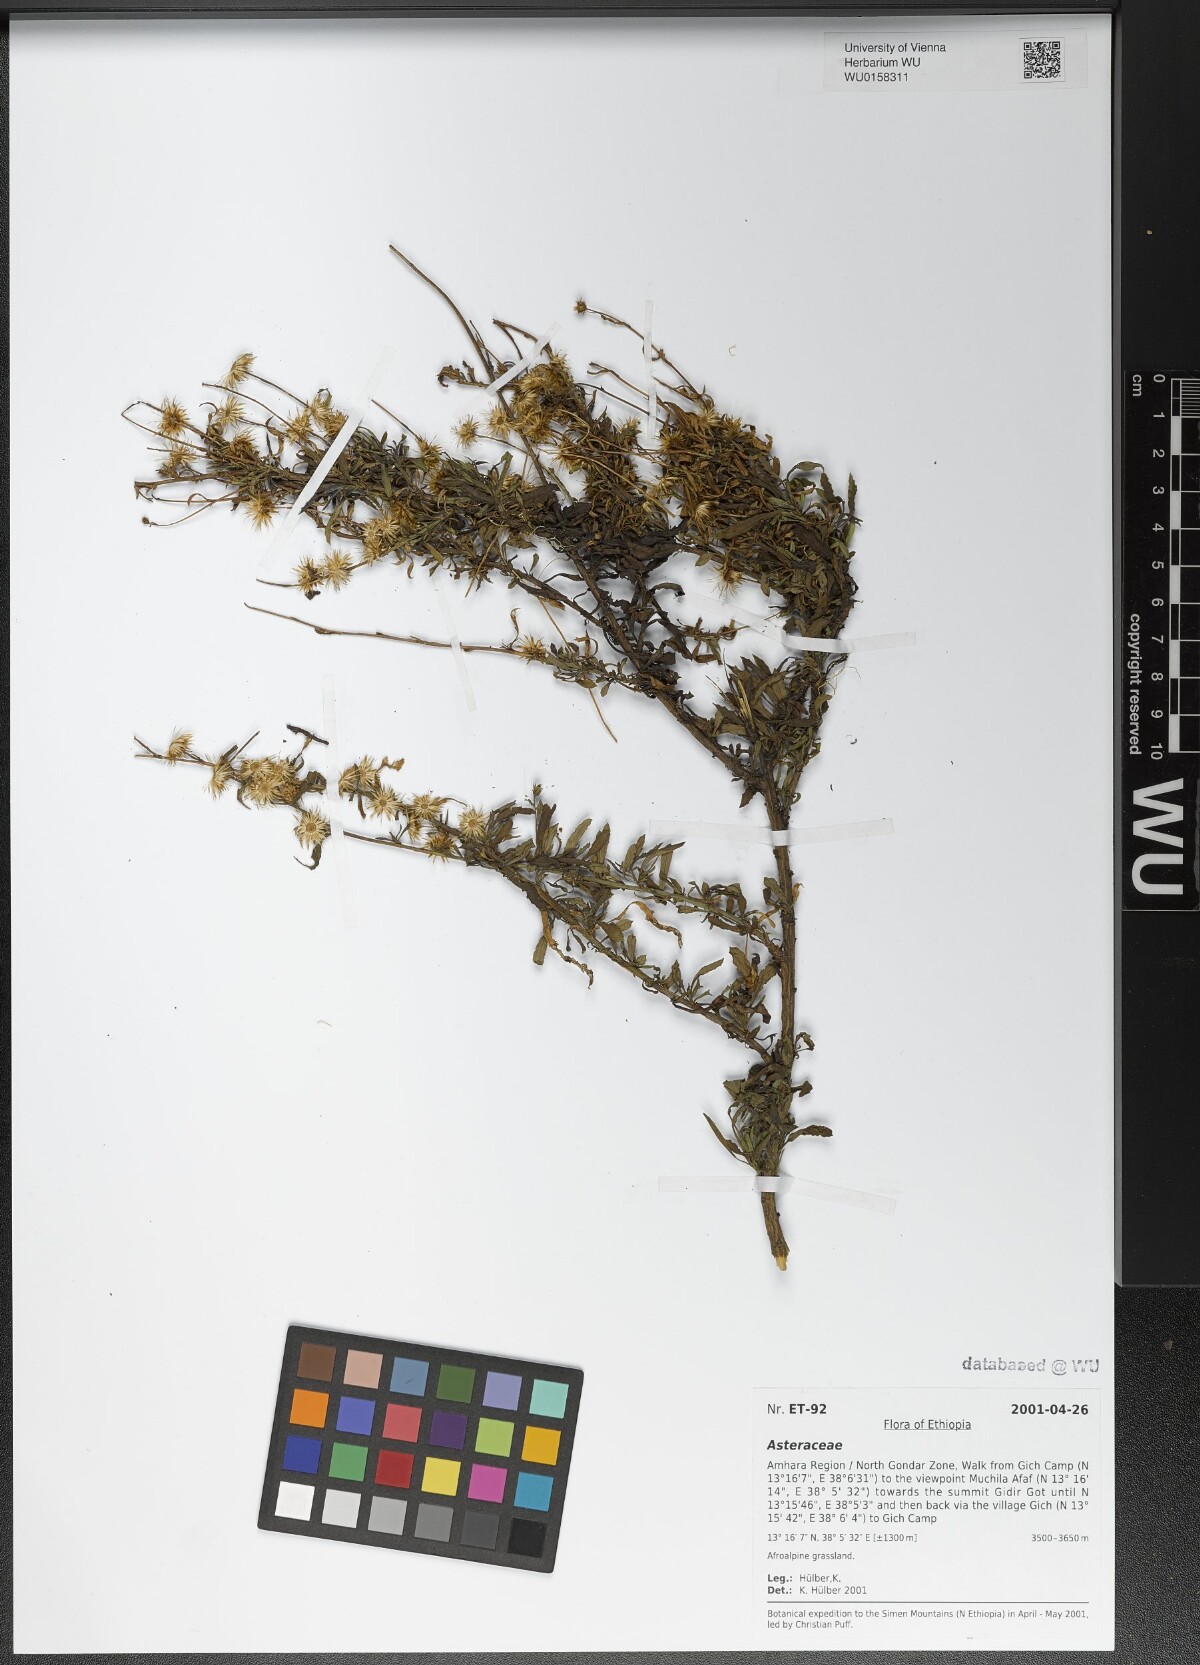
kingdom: Plantae
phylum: Tracheophyta
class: Magnoliopsida
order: Asterales
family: Asteraceae
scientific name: Asteraceae
